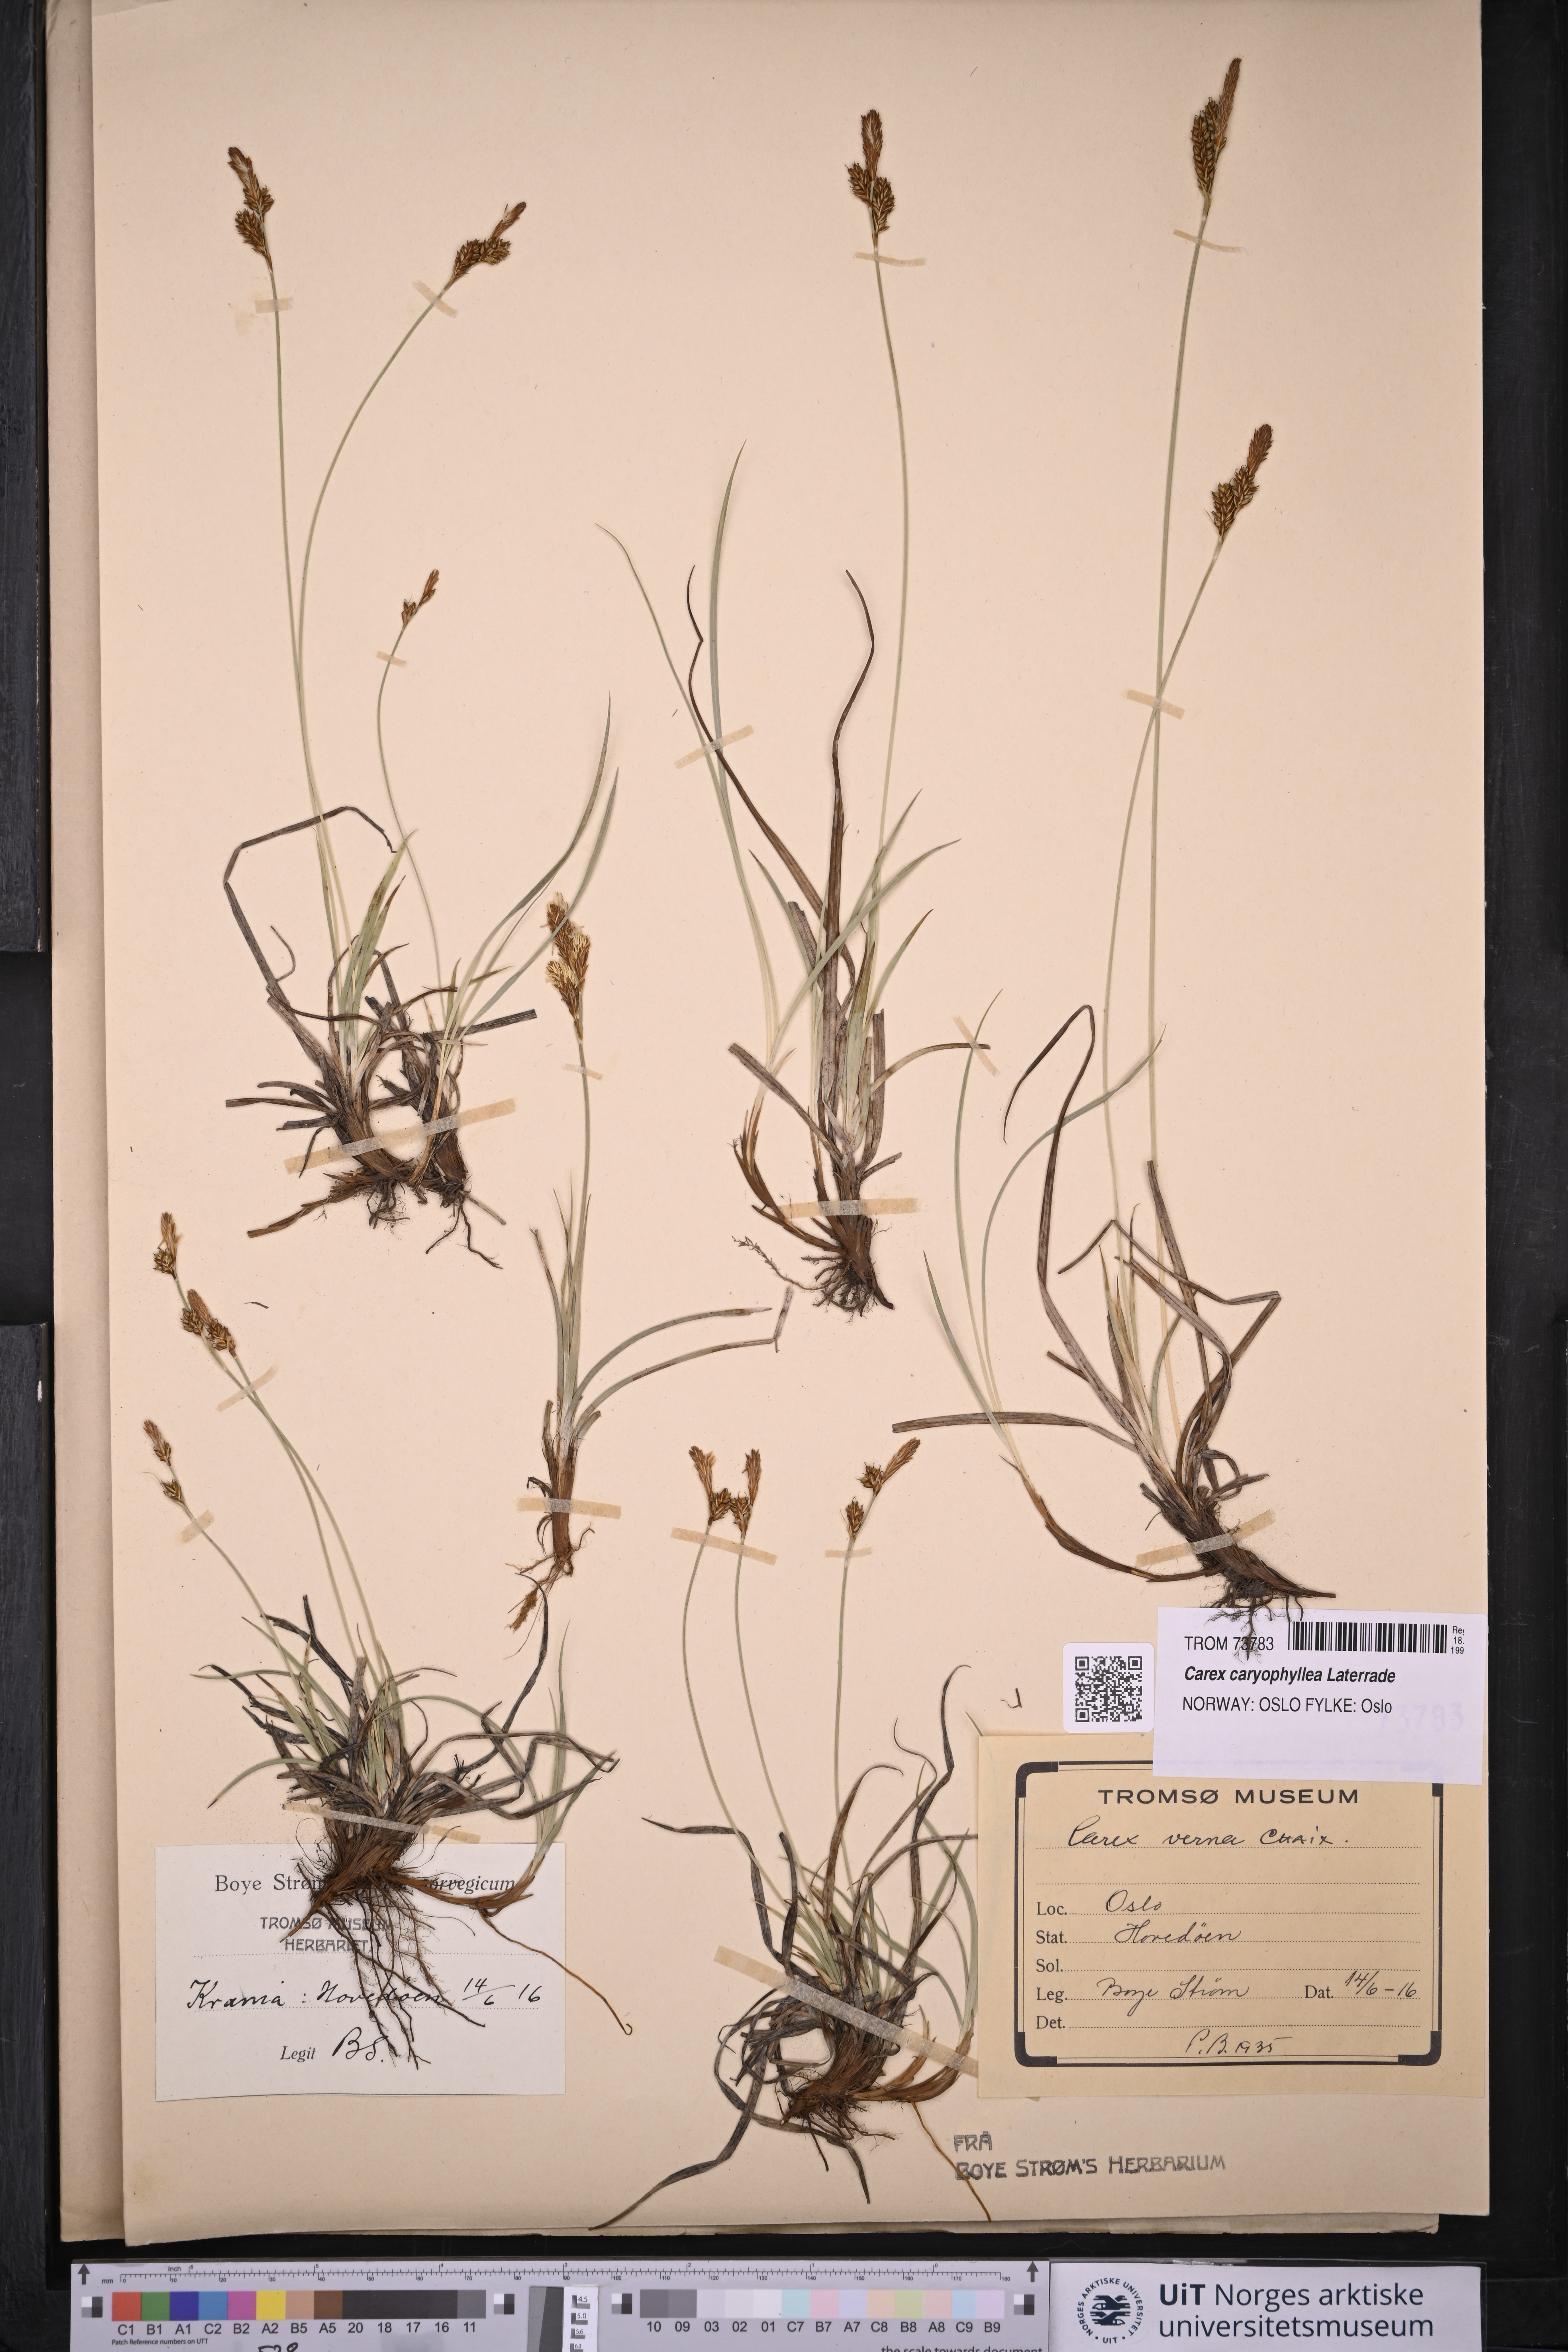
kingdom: Plantae
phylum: Tracheophyta
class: Liliopsida
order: Poales
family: Cyperaceae
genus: Carex
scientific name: Carex caryophyllea
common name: Spring sedge
